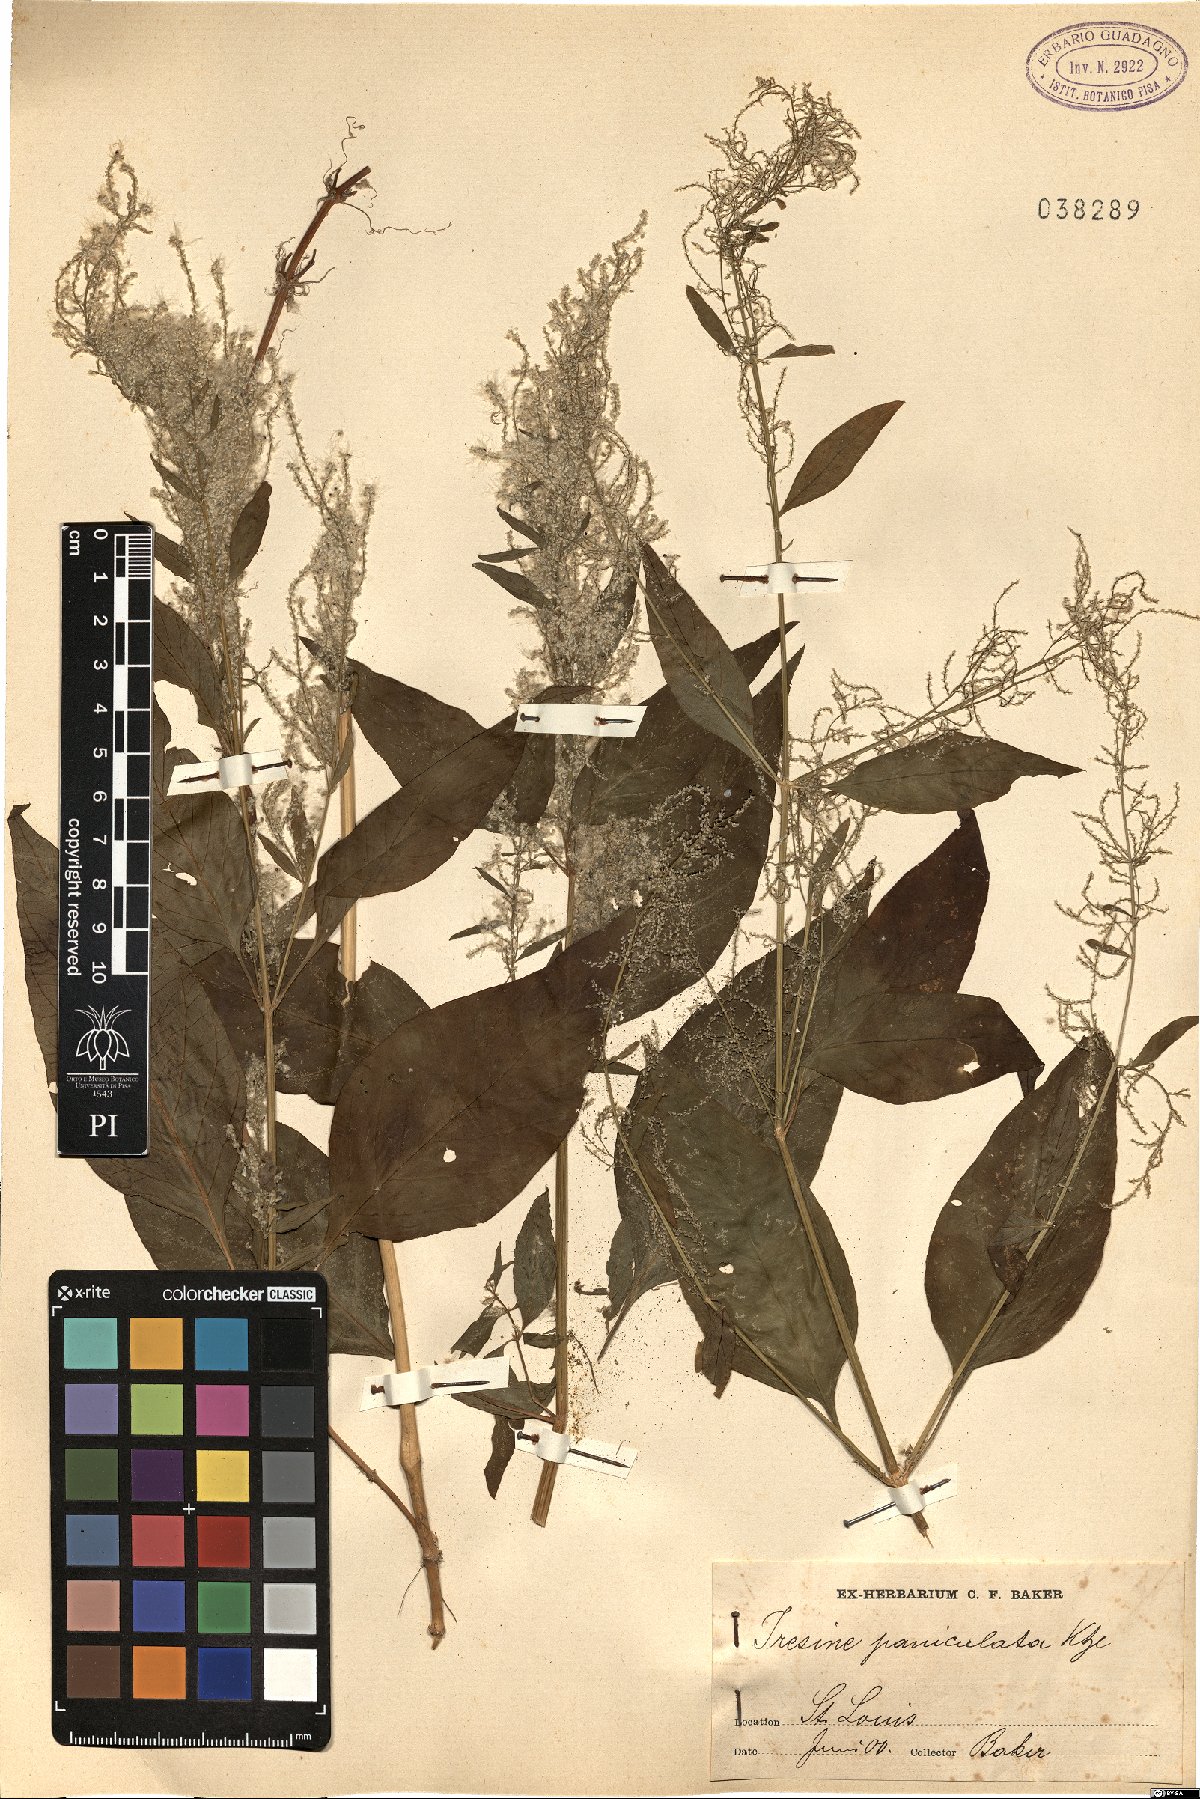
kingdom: Plantae
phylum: Tracheophyta
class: Magnoliopsida
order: Caryophyllales
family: Amaranthaceae
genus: Iresine
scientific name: Iresine rhizomatosa
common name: Juda's-bush
